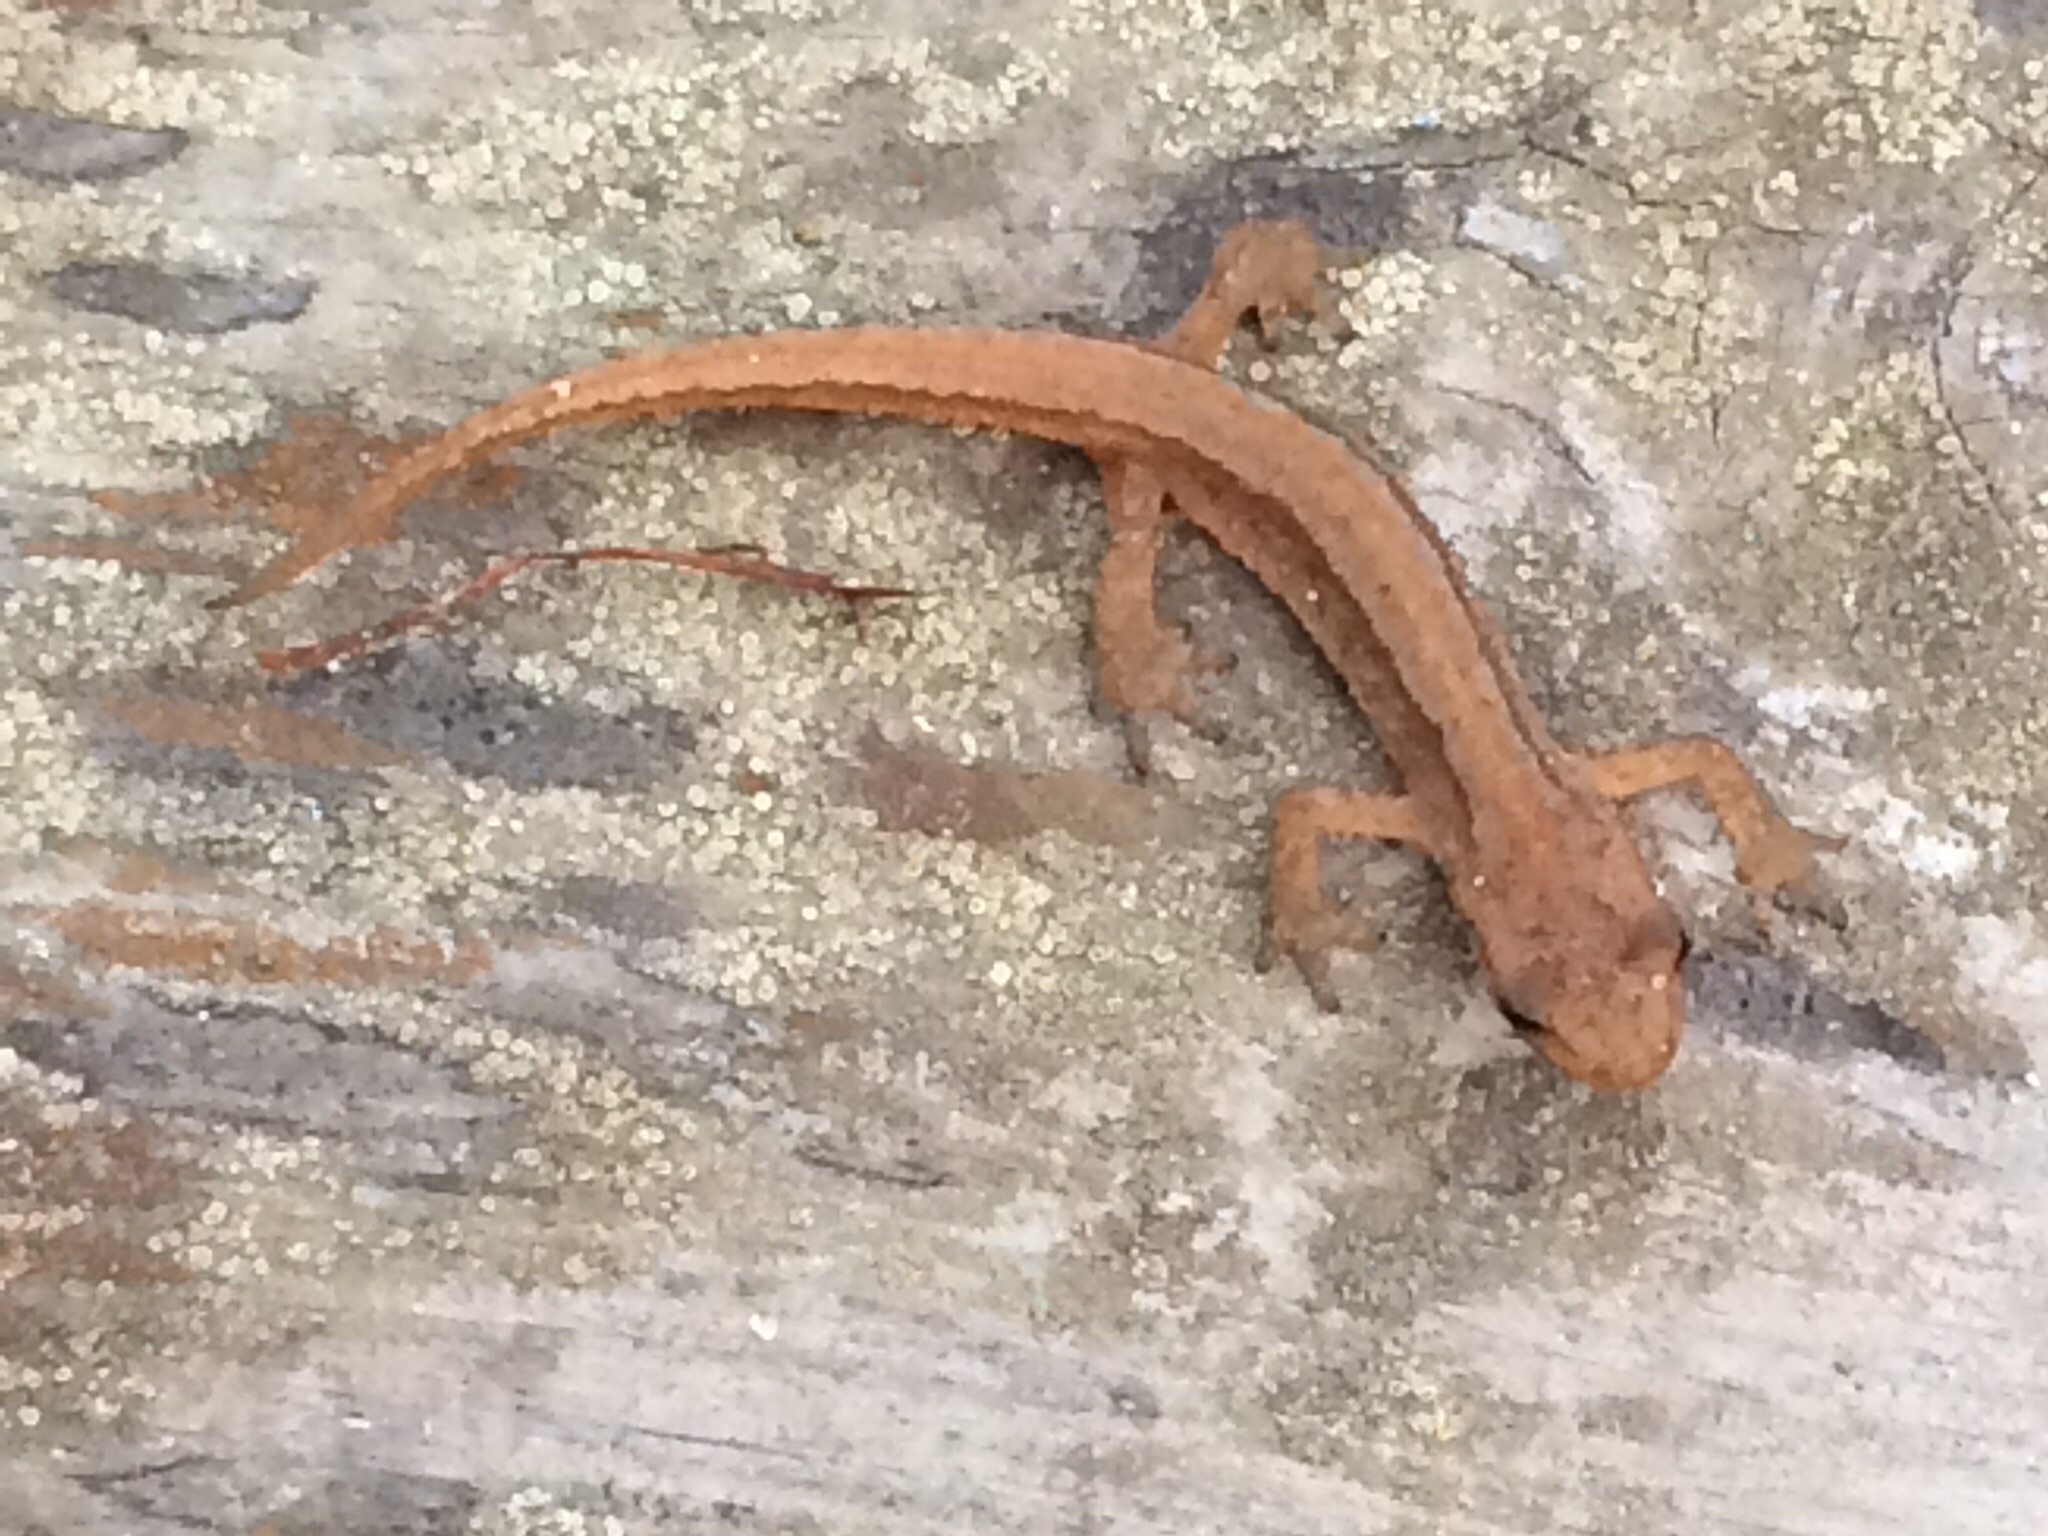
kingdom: Animalia
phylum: Chordata
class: Amphibia
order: Caudata
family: Salamandridae
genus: Lissotriton
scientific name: Lissotriton vulgaris
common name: Smooth newt
